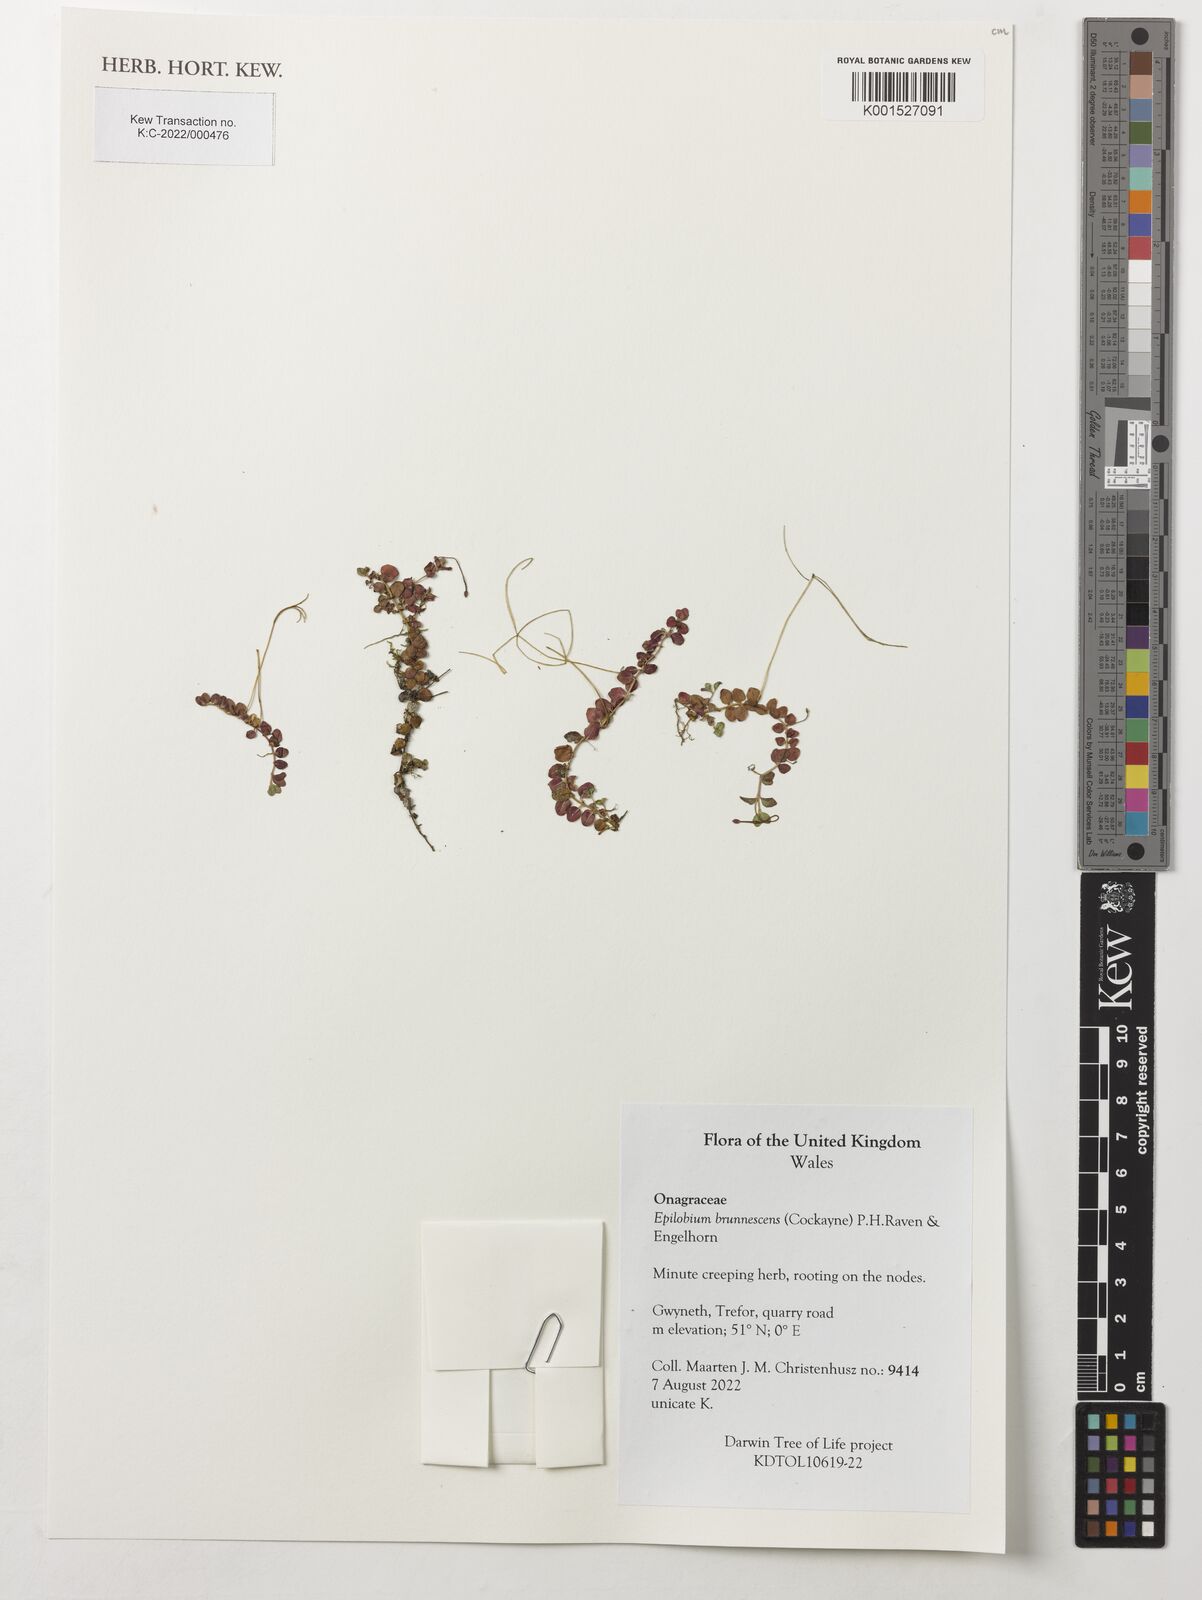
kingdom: Plantae
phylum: Tracheophyta
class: Magnoliopsida
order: Myrtales
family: Onagraceae
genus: Epilobium
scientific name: Epilobium brunnescens
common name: New zealand willowherb
